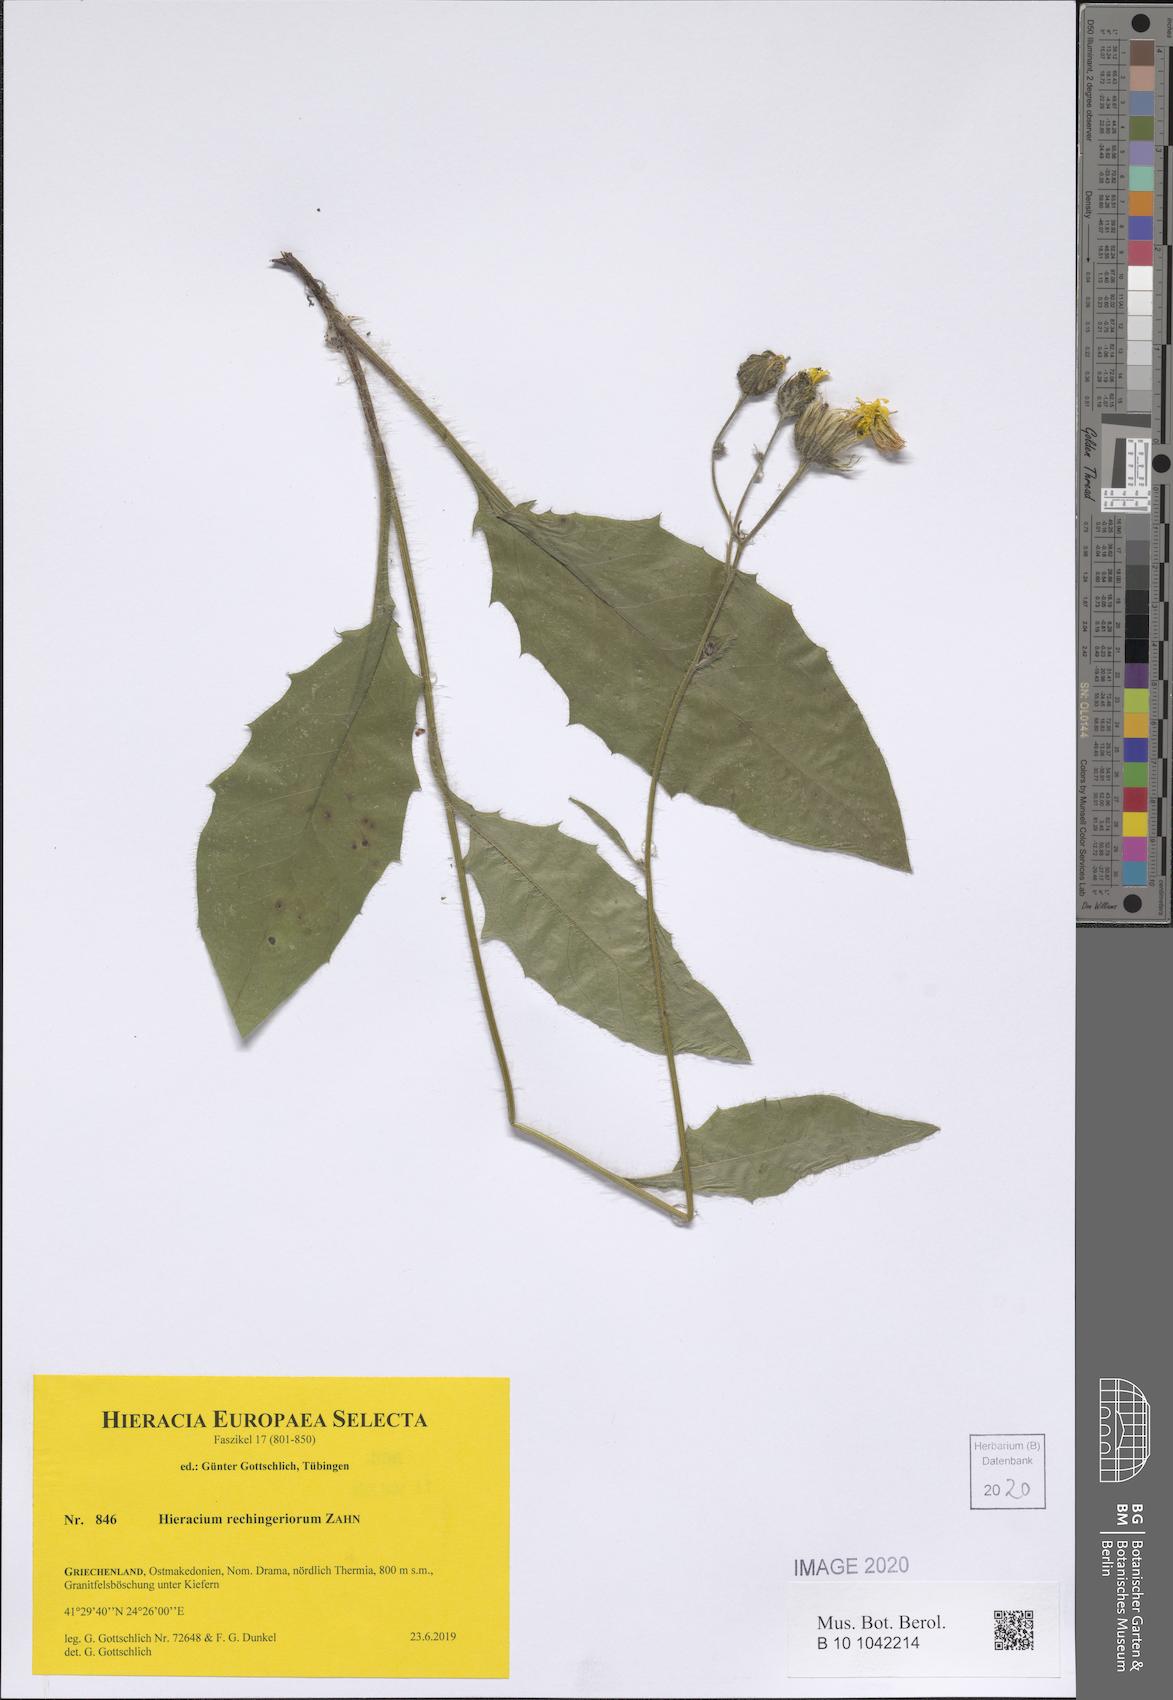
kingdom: Plantae
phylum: Tracheophyta
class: Magnoliopsida
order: Asterales
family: Asteraceae
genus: Hieracium
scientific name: Hieracium rechingerorum
